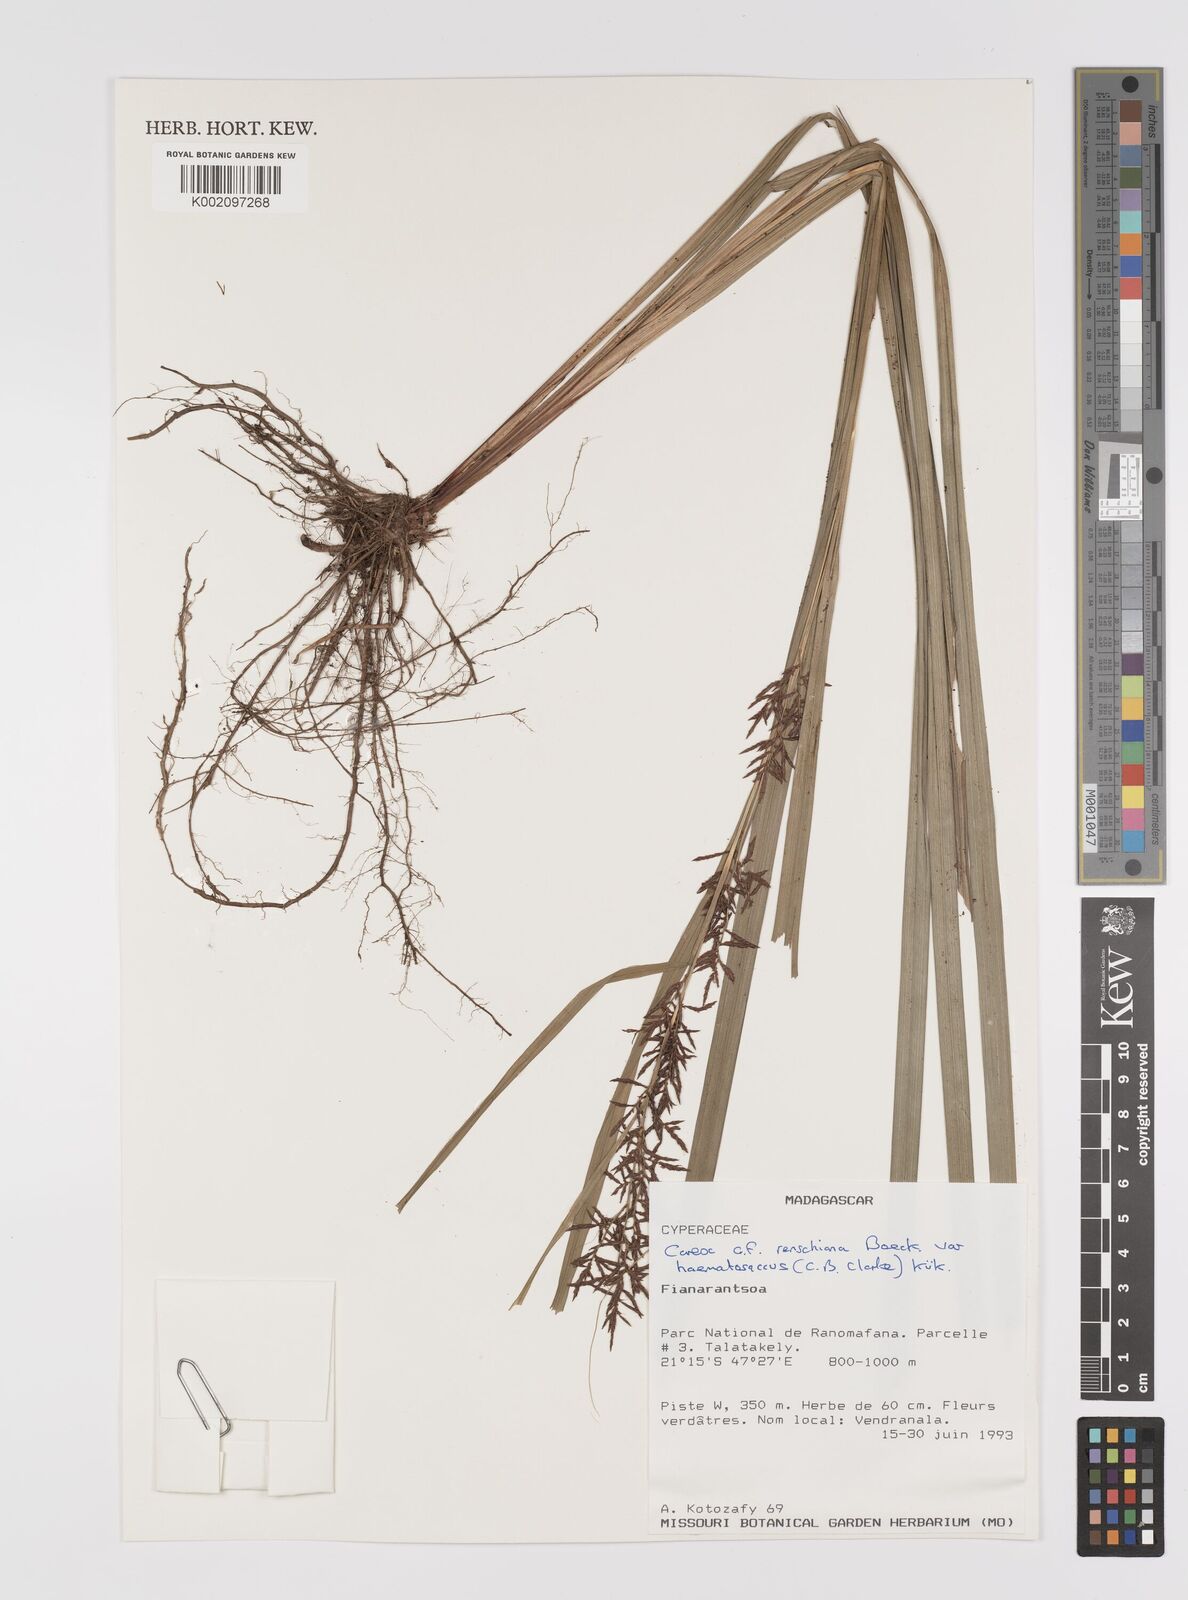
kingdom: Plantae
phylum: Tracheophyta
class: Liliopsida
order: Poales
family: Cyperaceae
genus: Carex
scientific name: Carex renschiana
